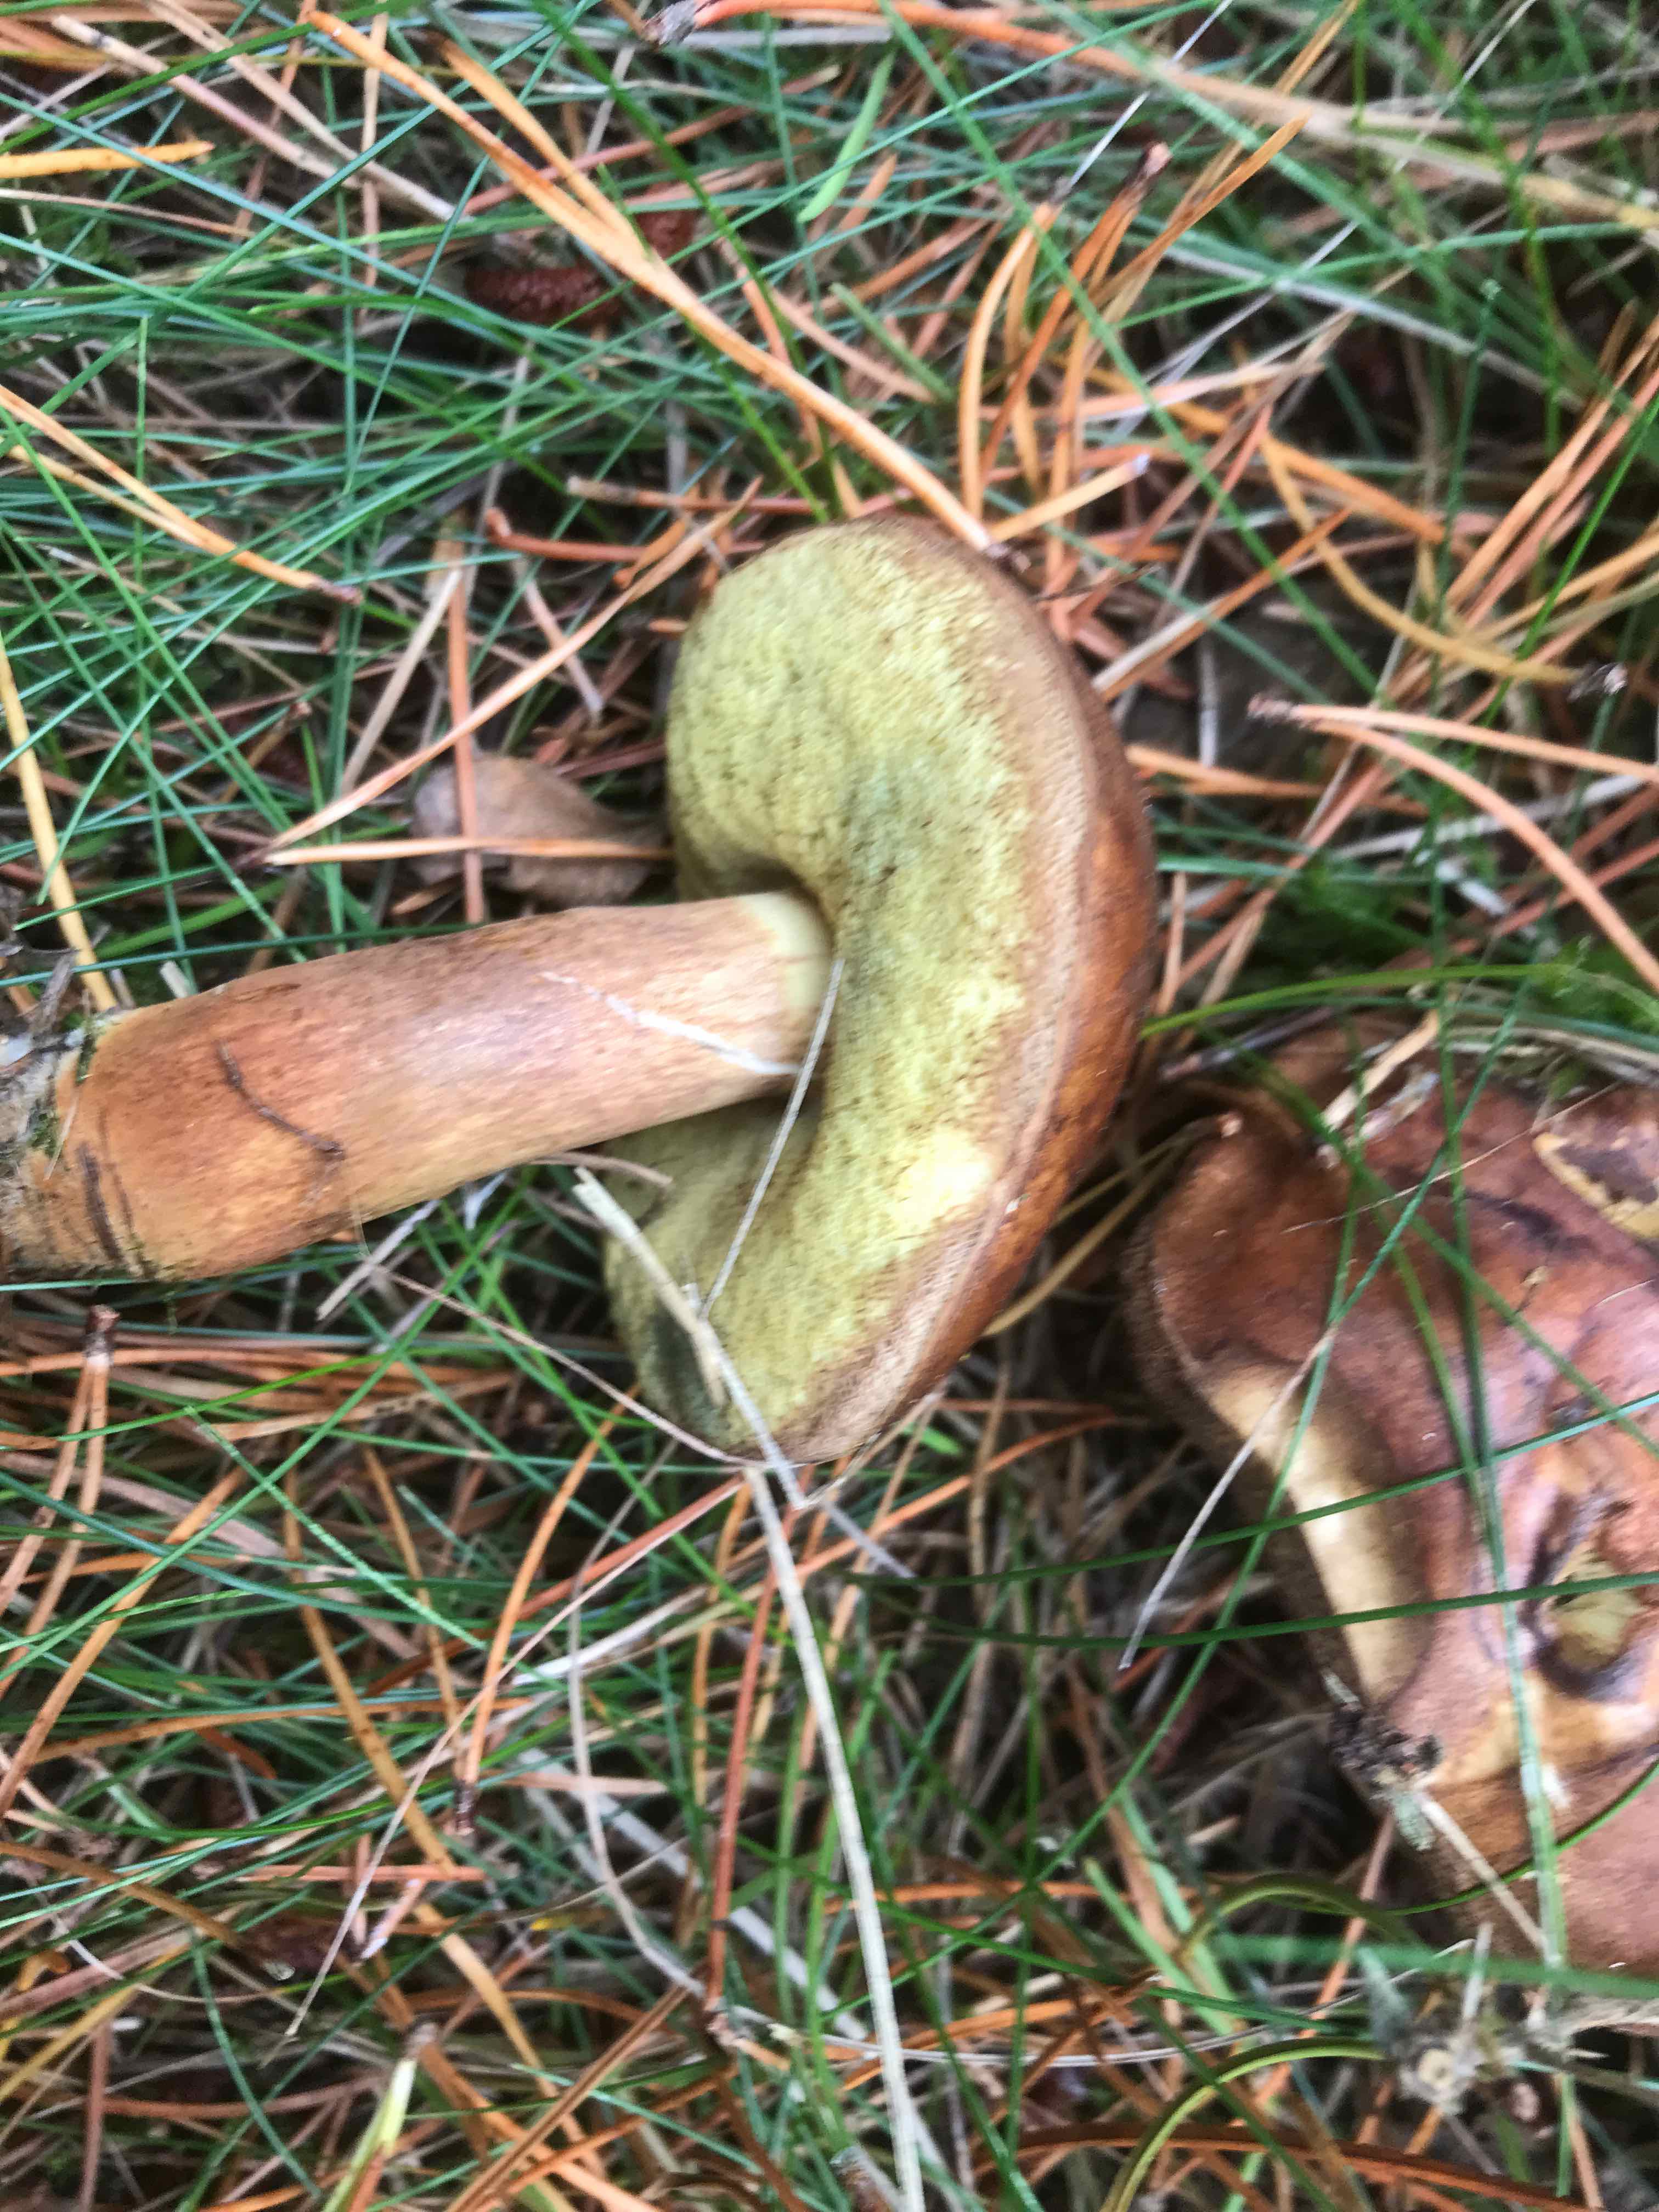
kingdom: Fungi
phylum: Basidiomycota
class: Agaricomycetes
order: Boletales
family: Boletaceae
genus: Imleria
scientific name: Imleria badia
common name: brunstokket rørhat
